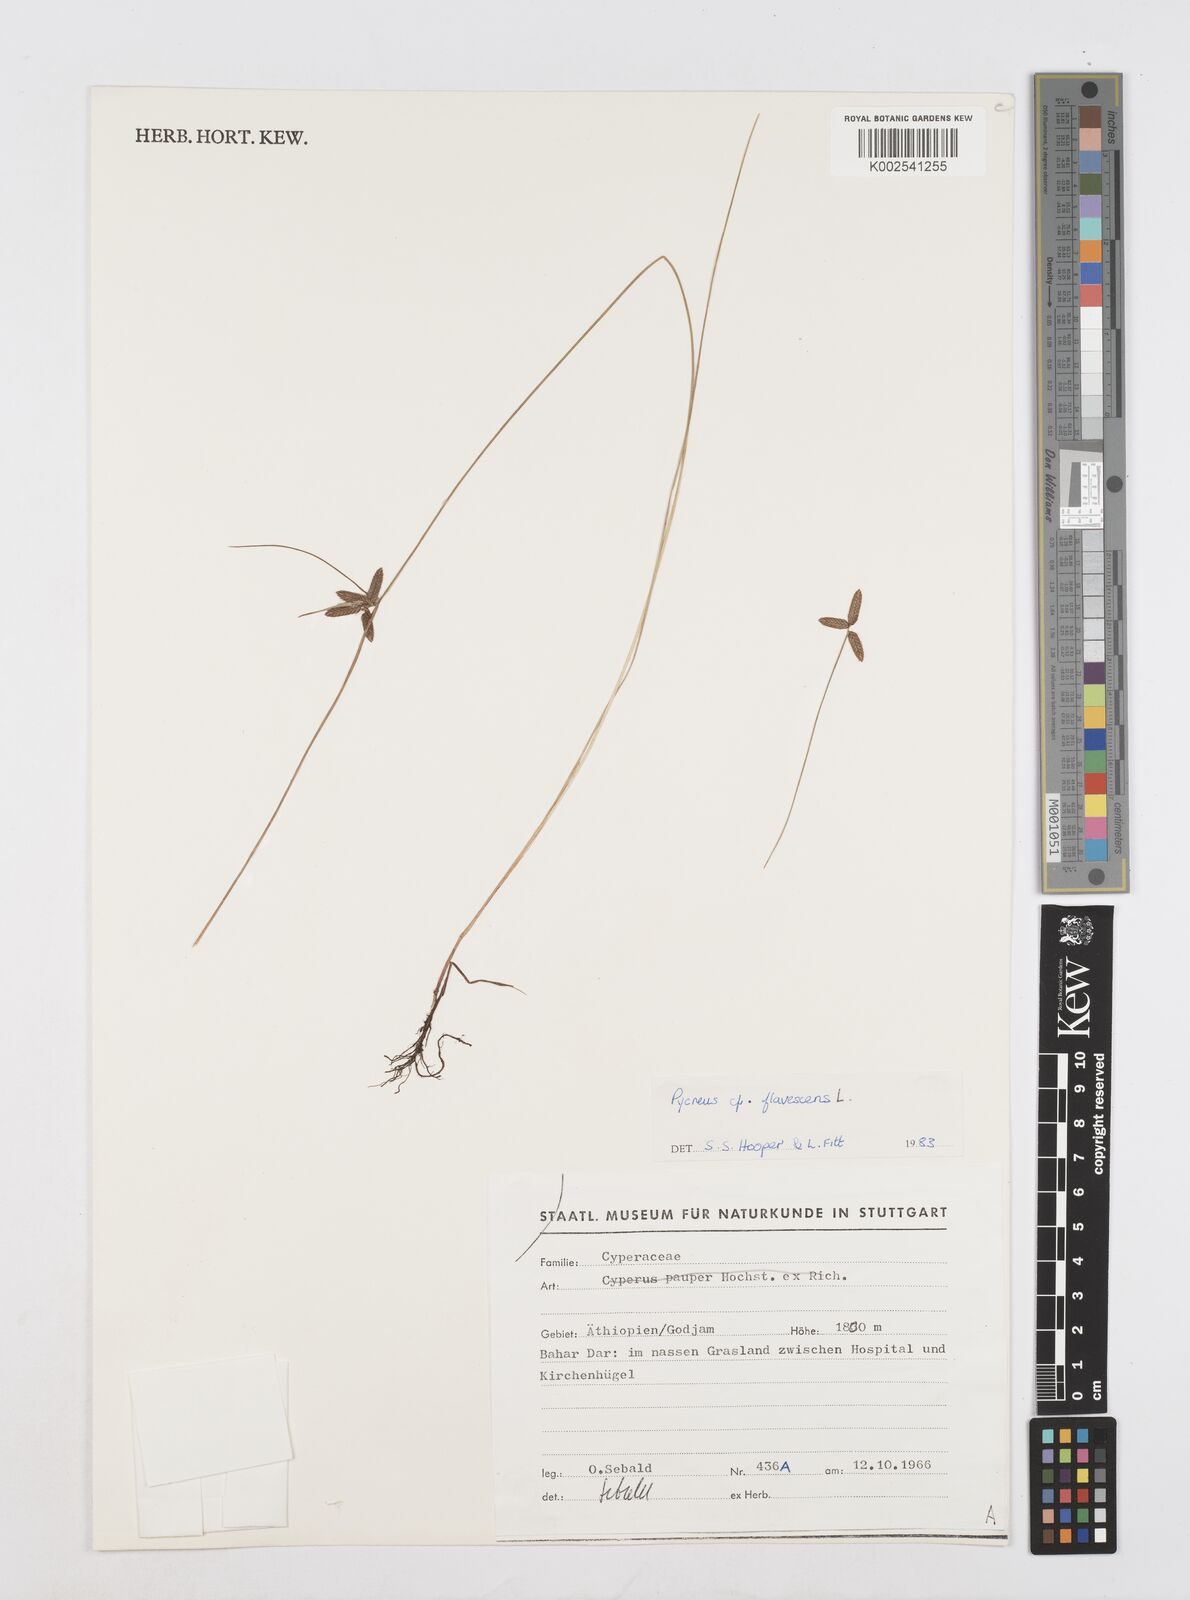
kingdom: Plantae
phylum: Tracheophyta
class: Liliopsida
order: Poales
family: Cyperaceae
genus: Cyperus
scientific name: Cyperus flavescens
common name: Yellow galingale
